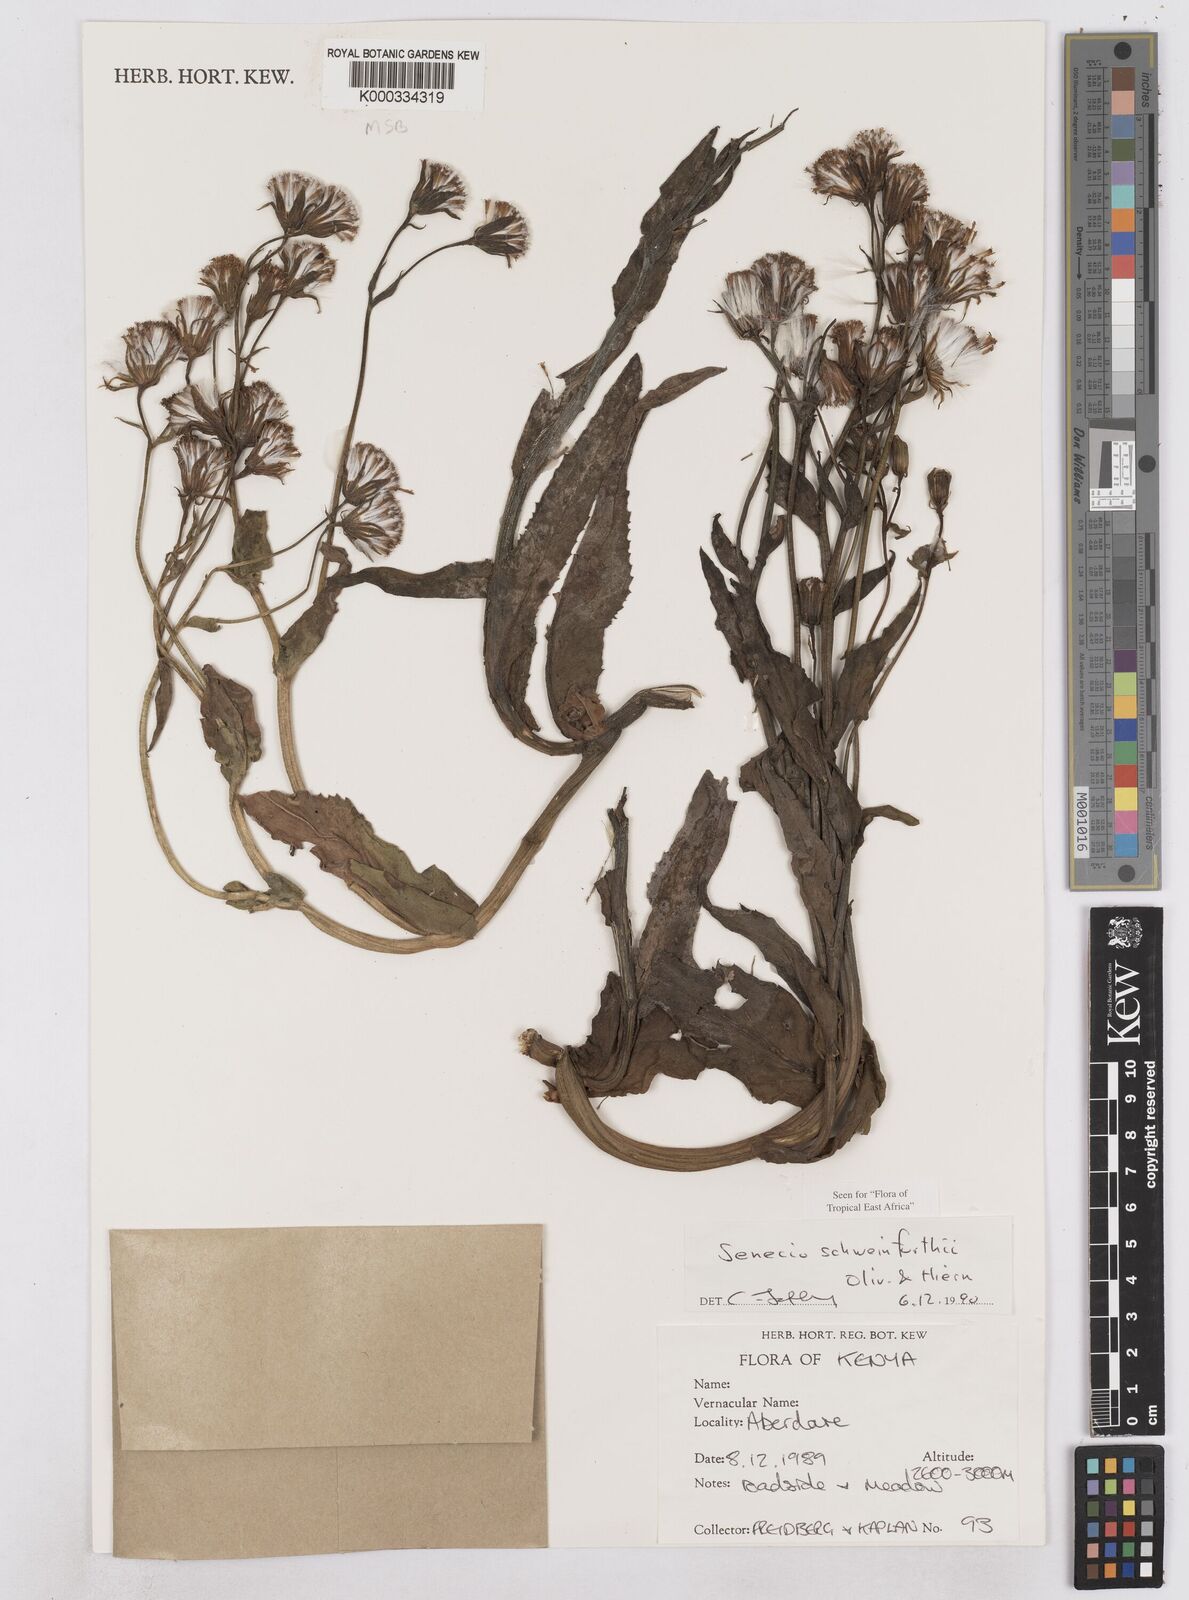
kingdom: Plantae
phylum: Tracheophyta
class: Magnoliopsida
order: Asterales
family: Asteraceae
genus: Senecio
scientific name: Senecio schweinfurthii
